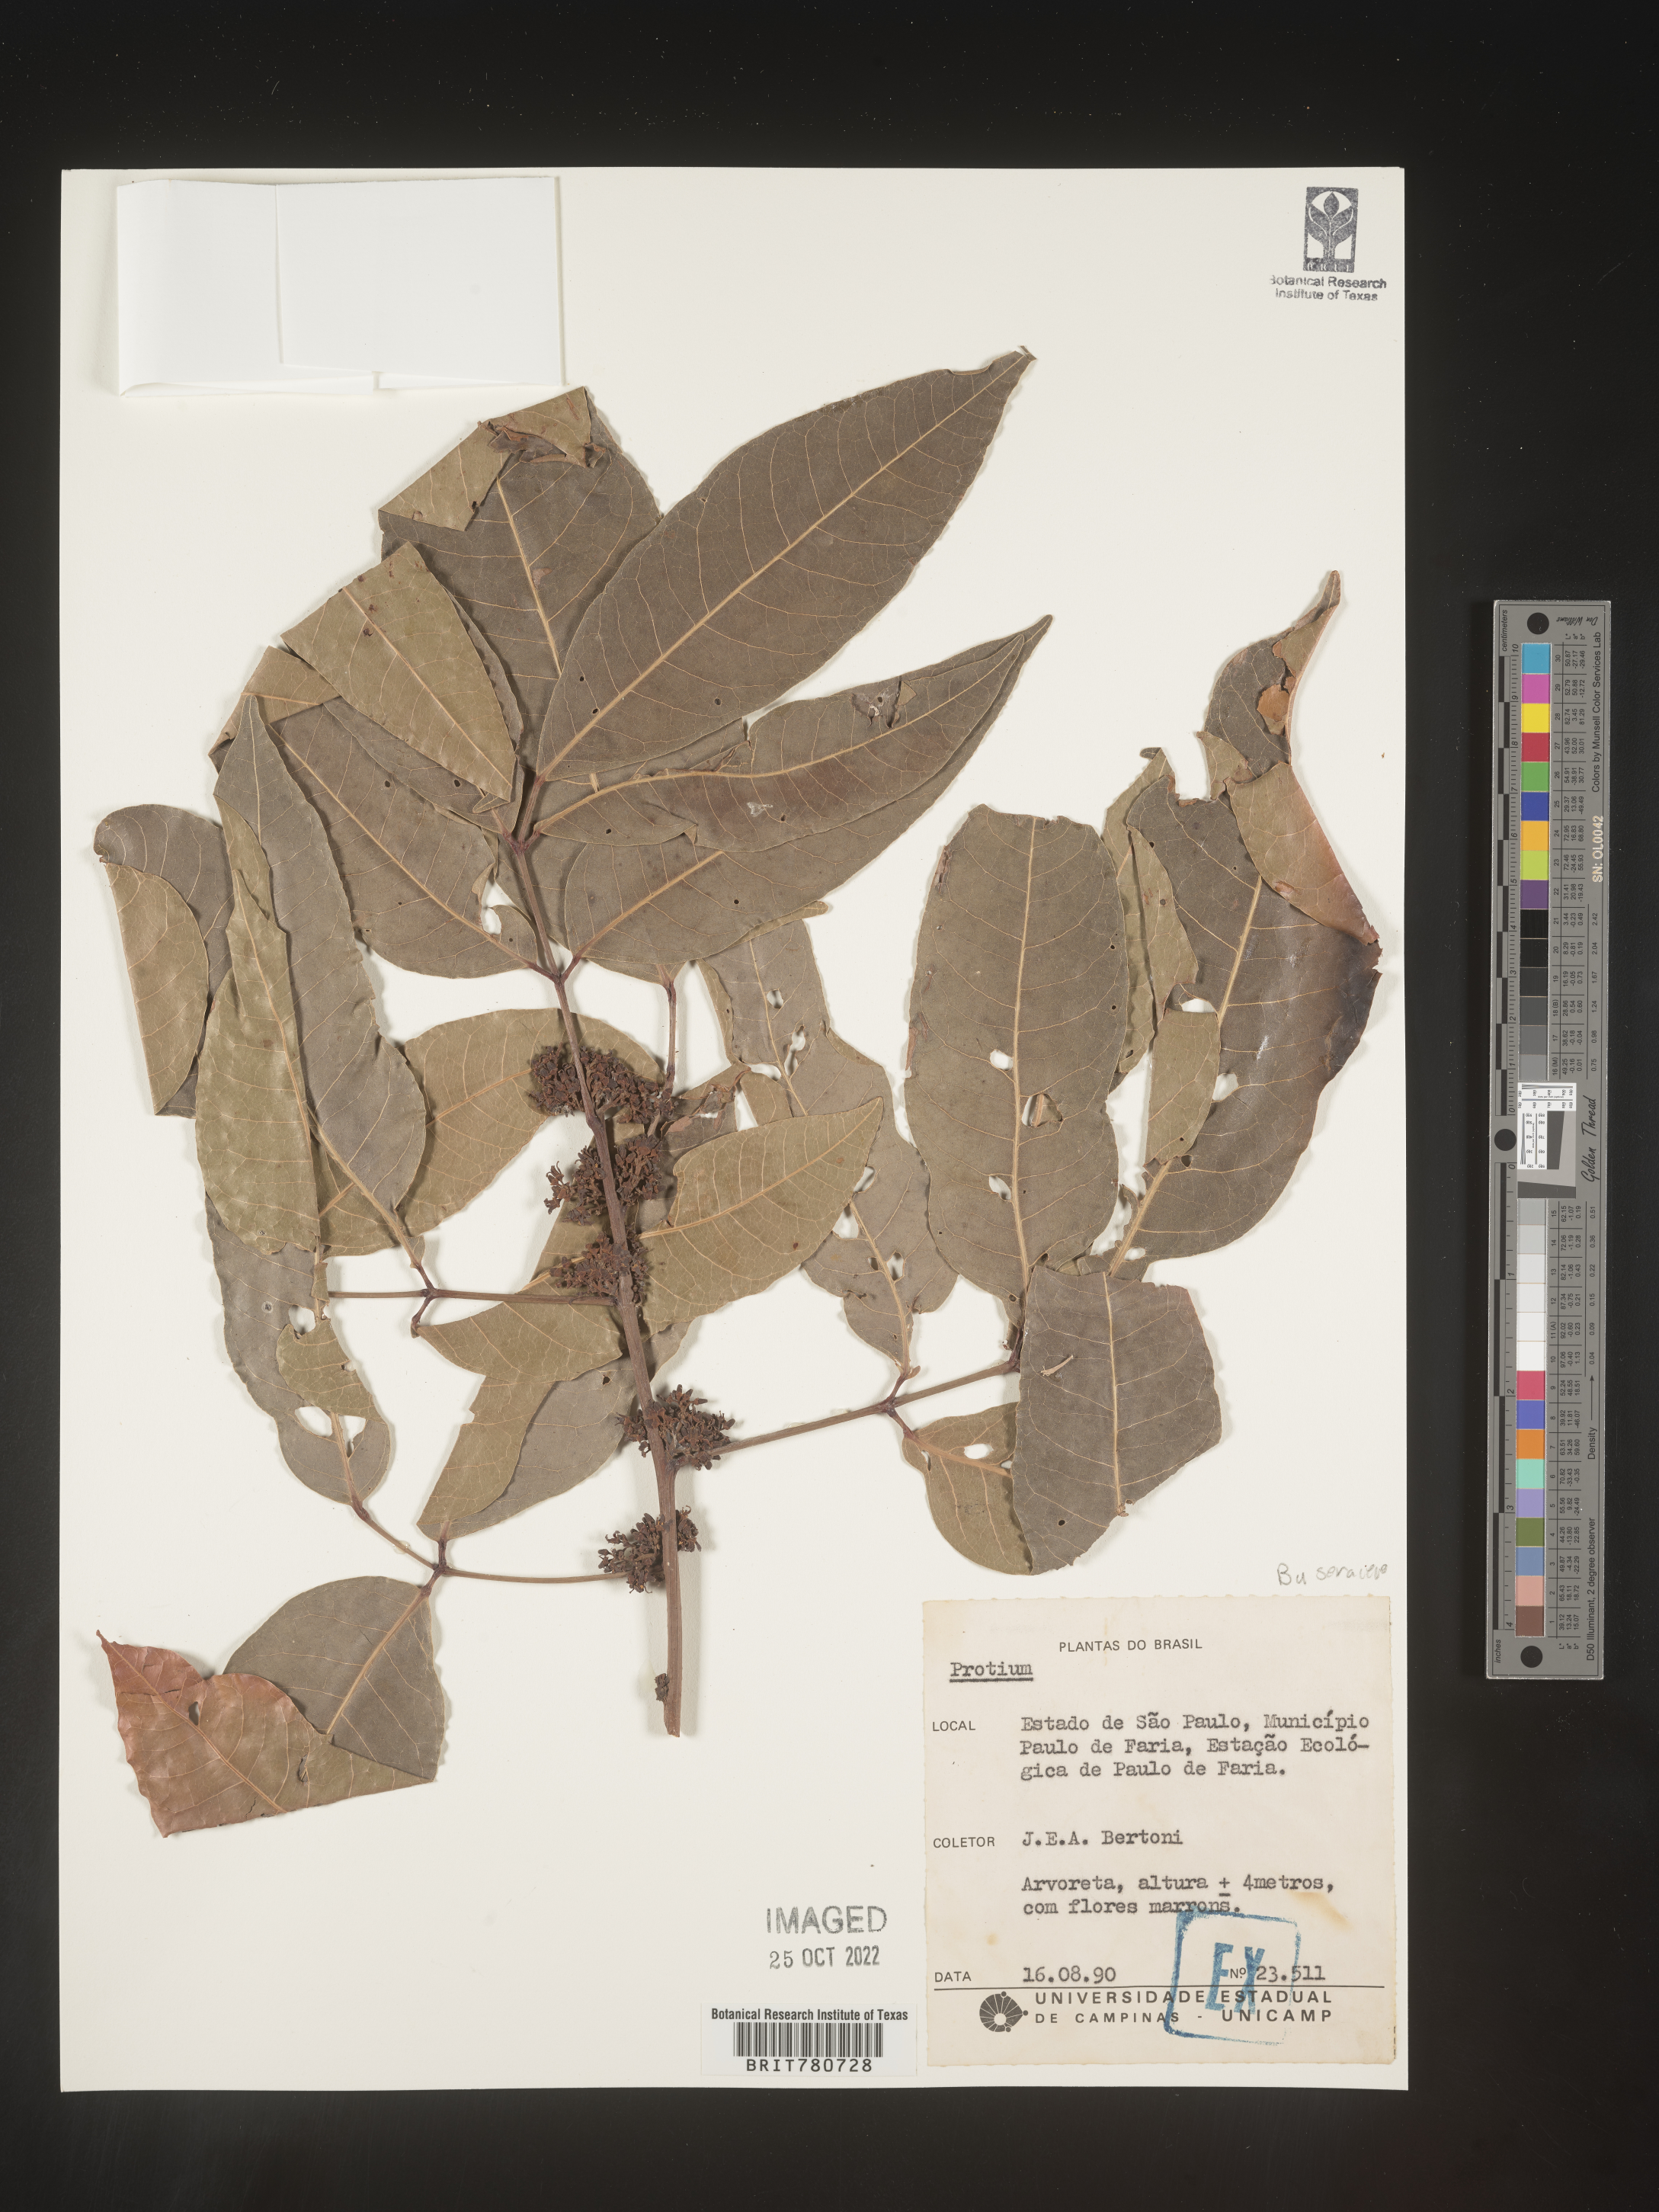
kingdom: Plantae
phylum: Tracheophyta
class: Magnoliopsida
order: Sapindales
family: Burseraceae
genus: Protium
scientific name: Protium
